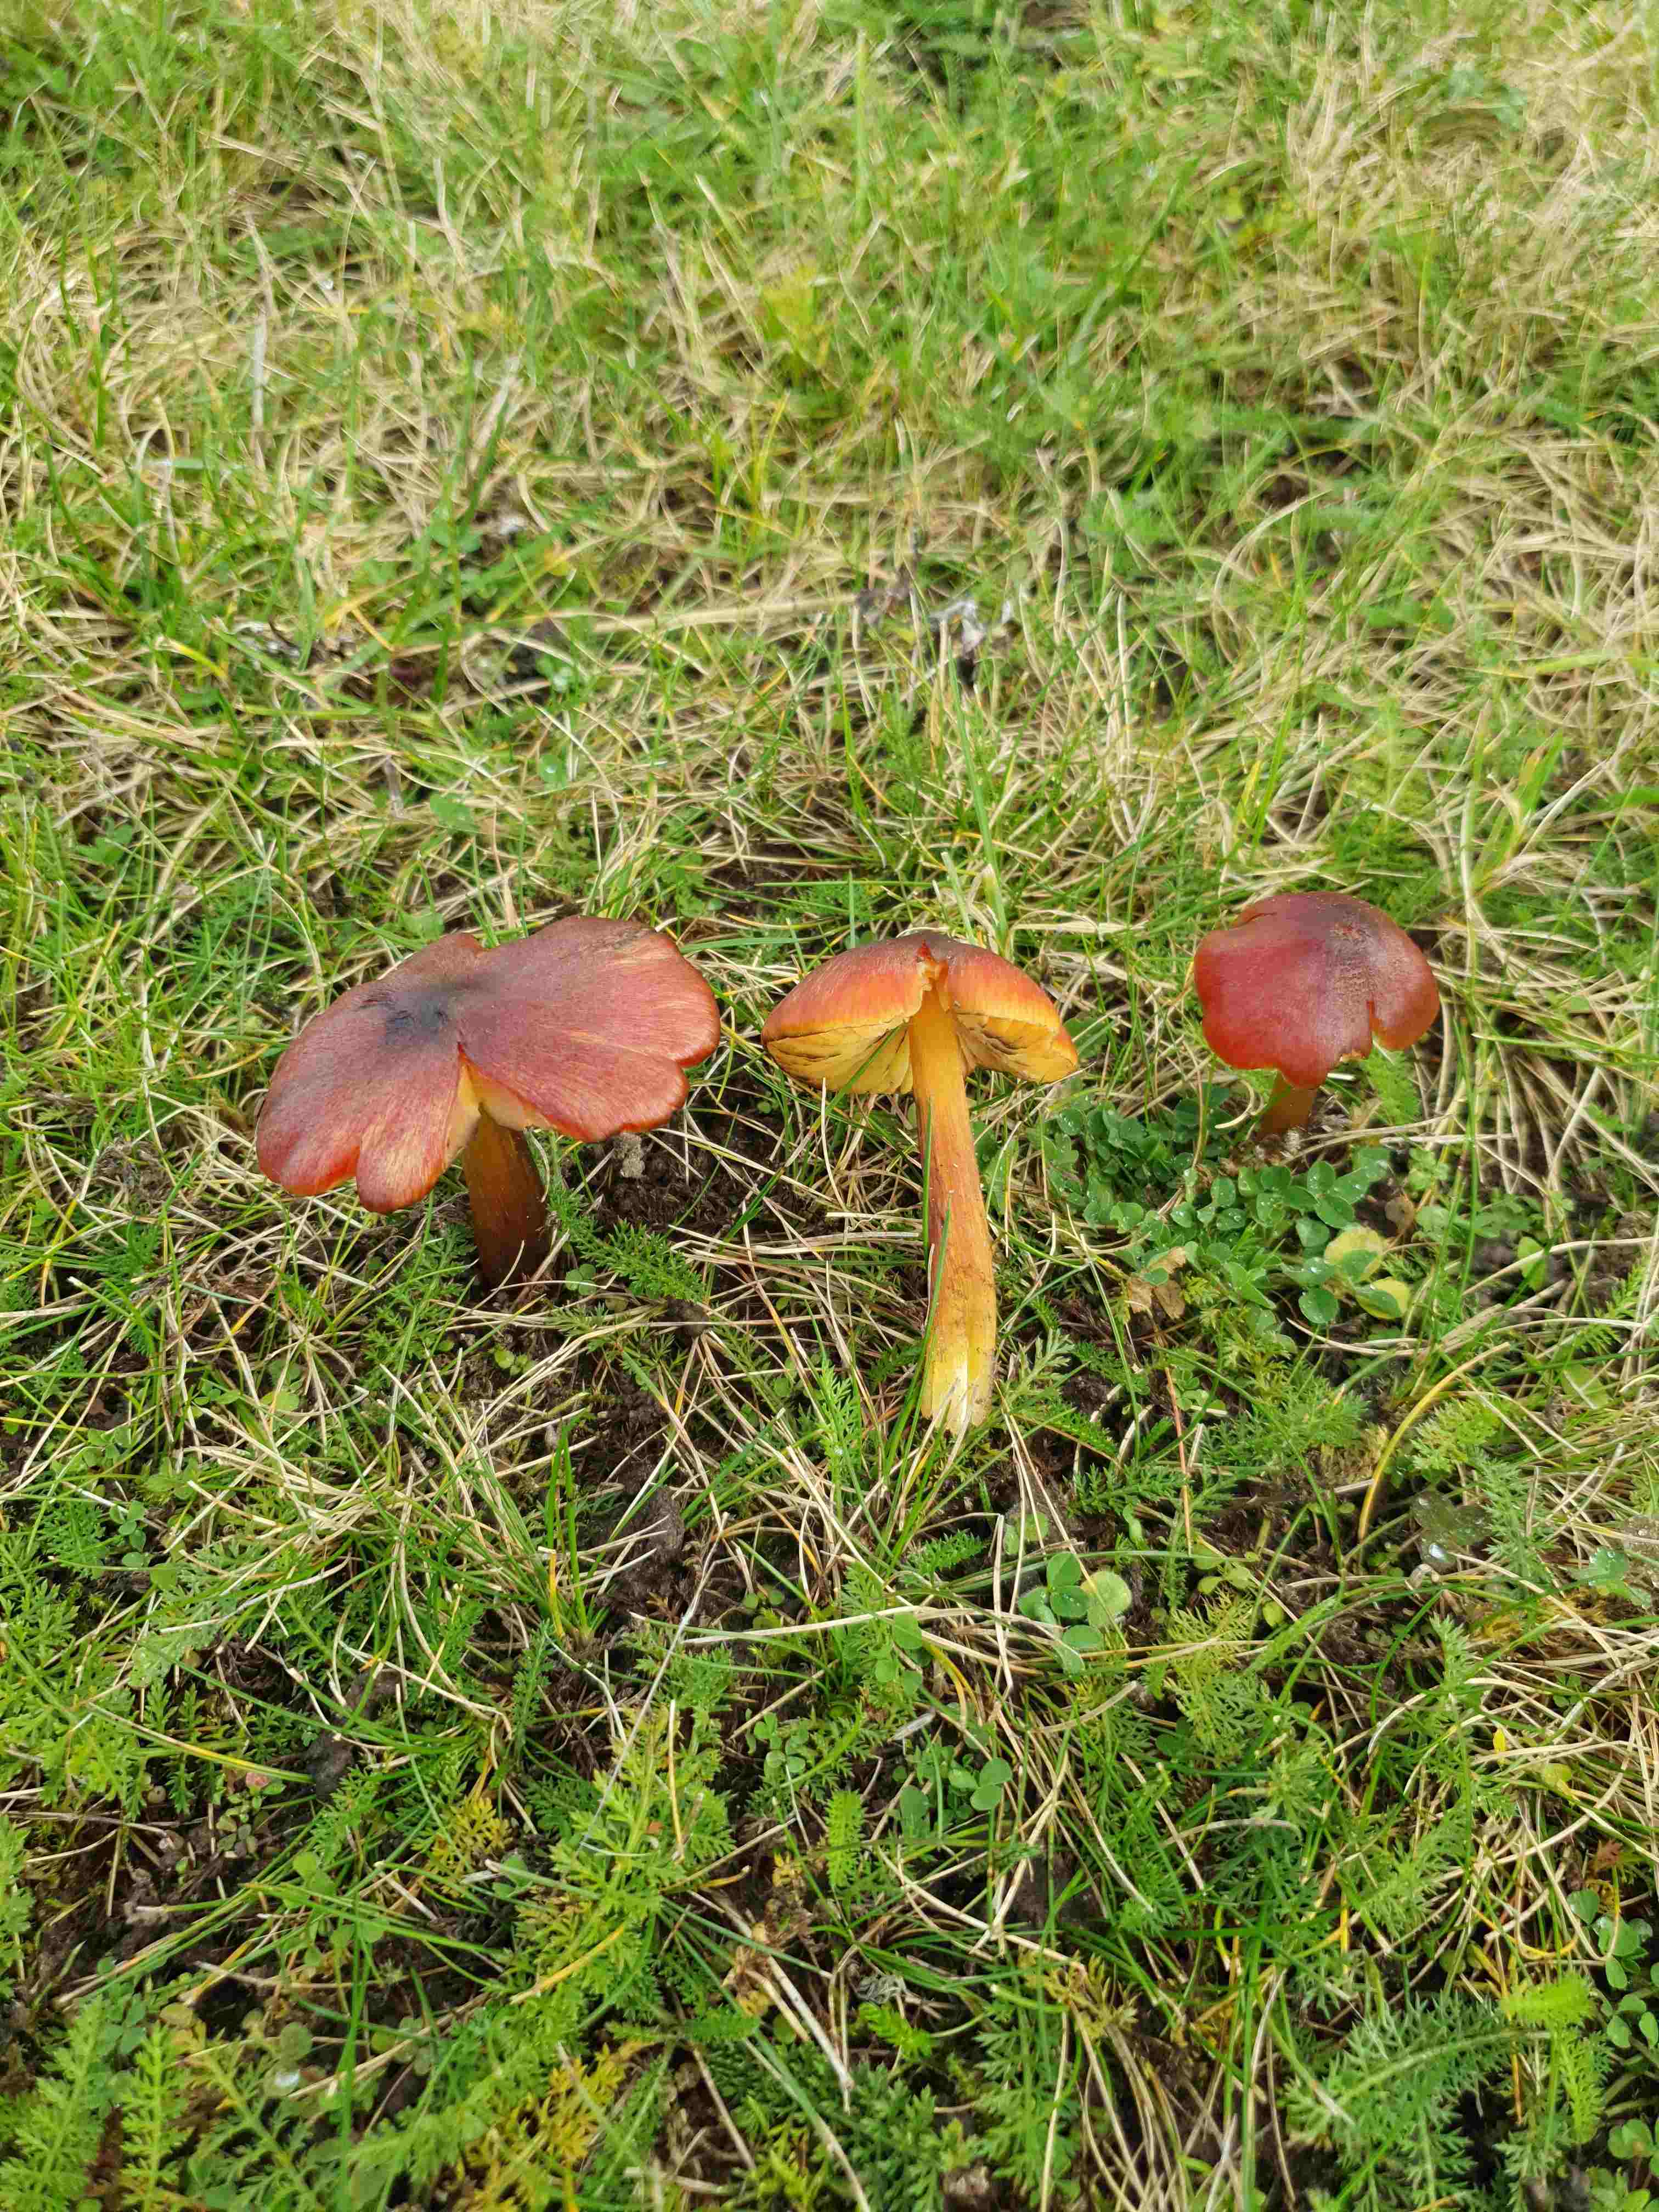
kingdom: Fungi
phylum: Basidiomycota
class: Agaricomycetes
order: Agaricales
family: Hygrophoraceae
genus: Hygrocybe
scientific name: Hygrocybe conica
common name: kegle-vokshat
